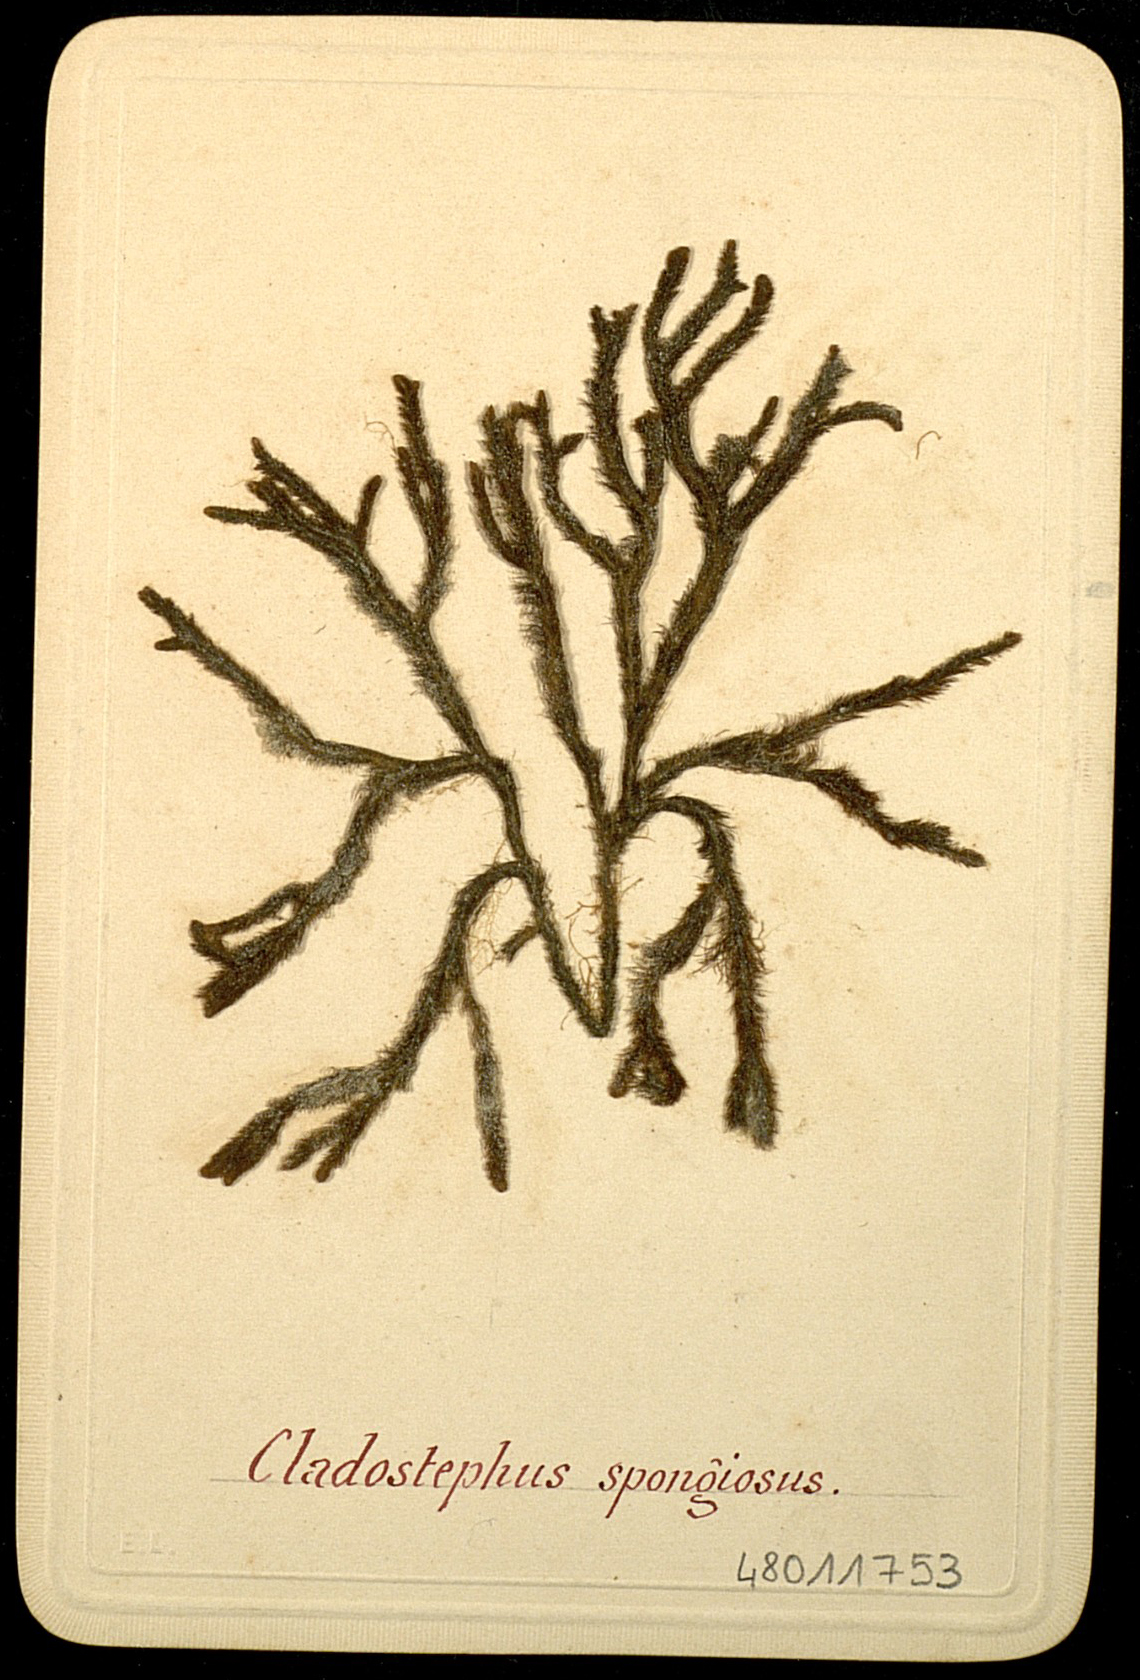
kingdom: Plantae
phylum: Rhodophyta
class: Bangiophyceae
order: Bangiales
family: Bangiaceae
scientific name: Bangiaceae
